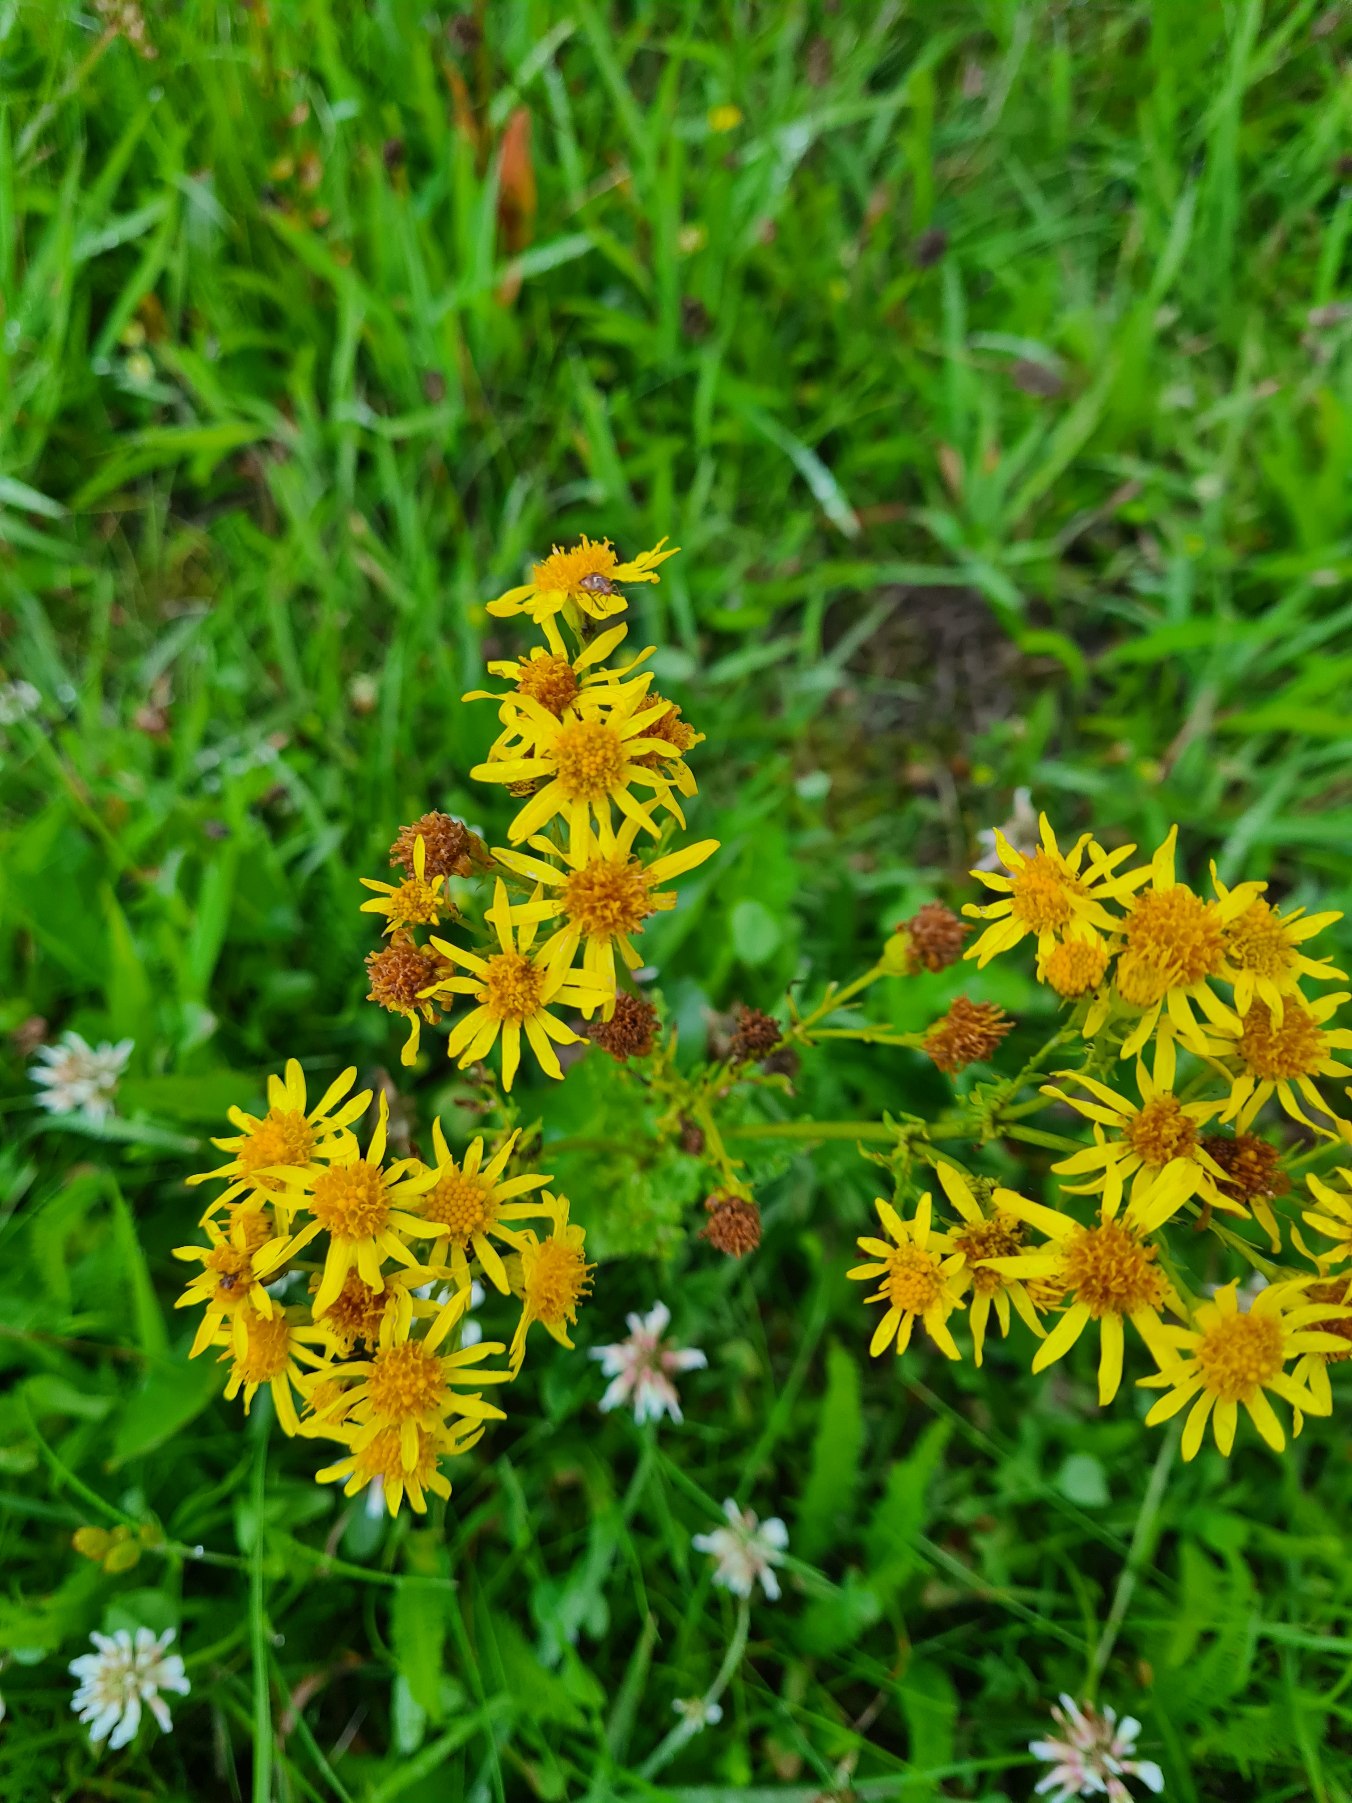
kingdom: Plantae
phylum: Tracheophyta
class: Magnoliopsida
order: Asterales
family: Asteraceae
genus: Jacobaea
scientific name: Jacobaea vulgaris
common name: Eng-brandbæger
